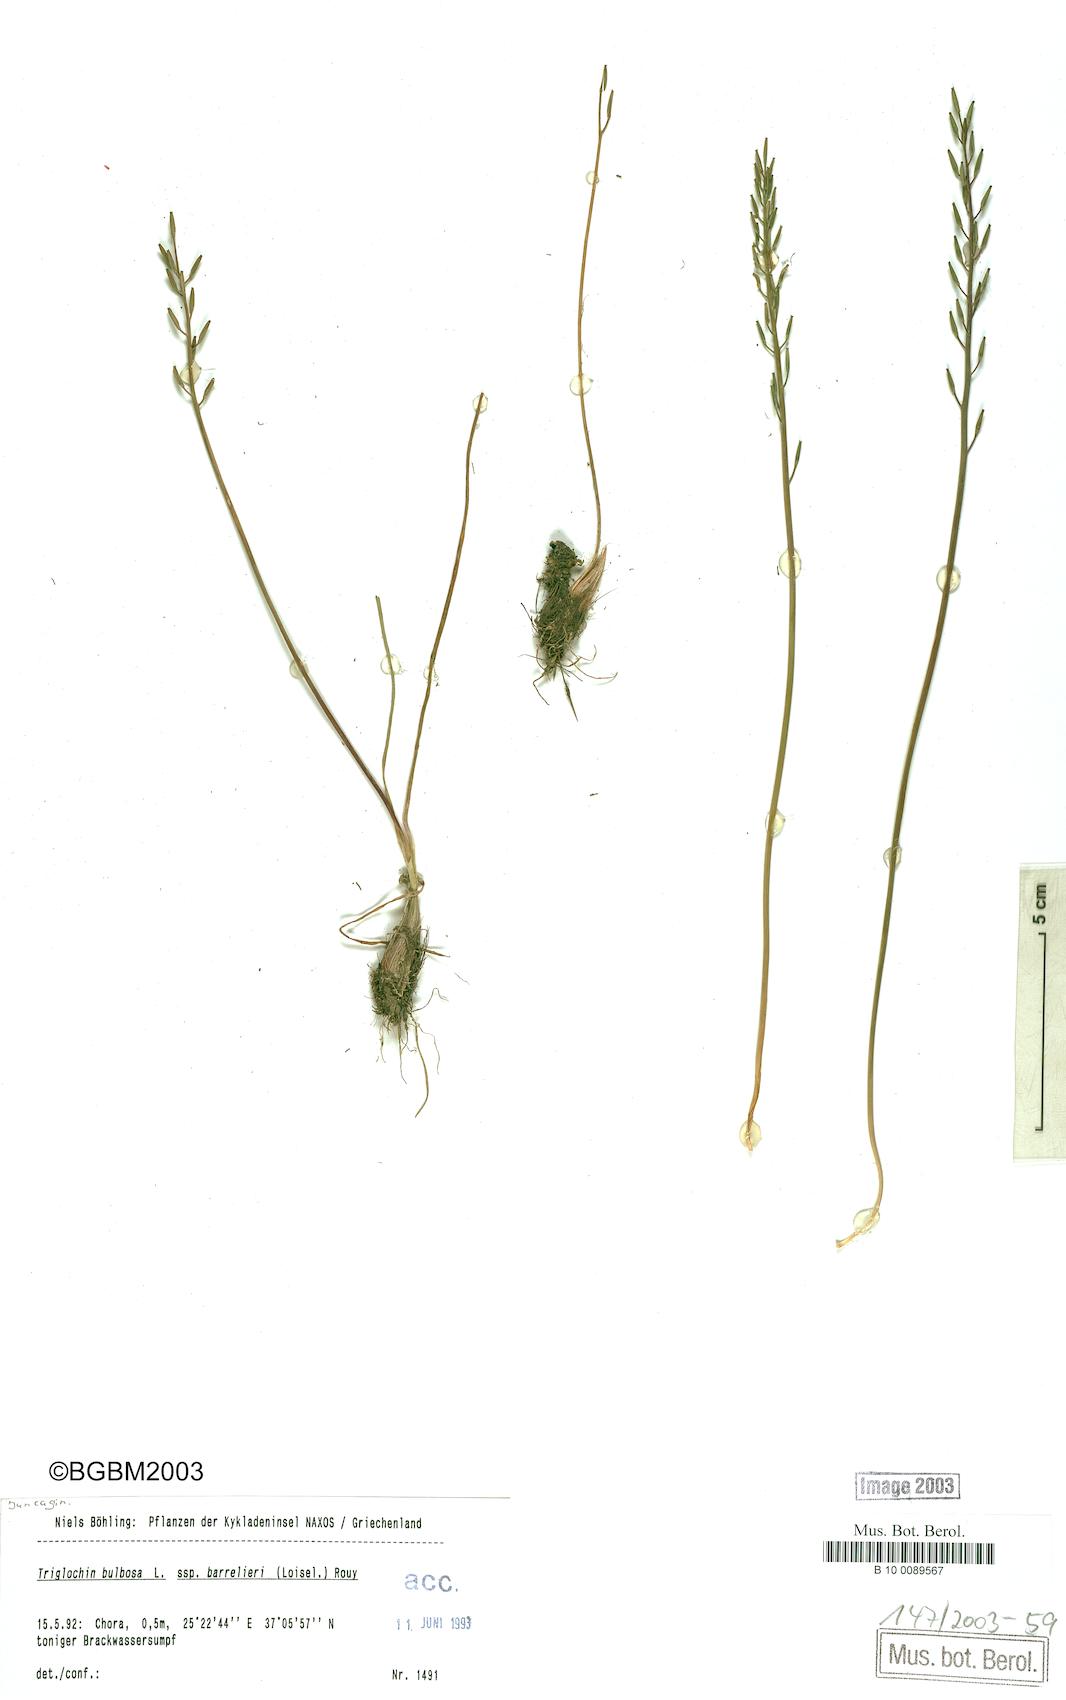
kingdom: Plantae
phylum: Tracheophyta
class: Liliopsida
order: Alismatales
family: Juncaginaceae
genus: Triglochin
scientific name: Triglochin barrelieri
